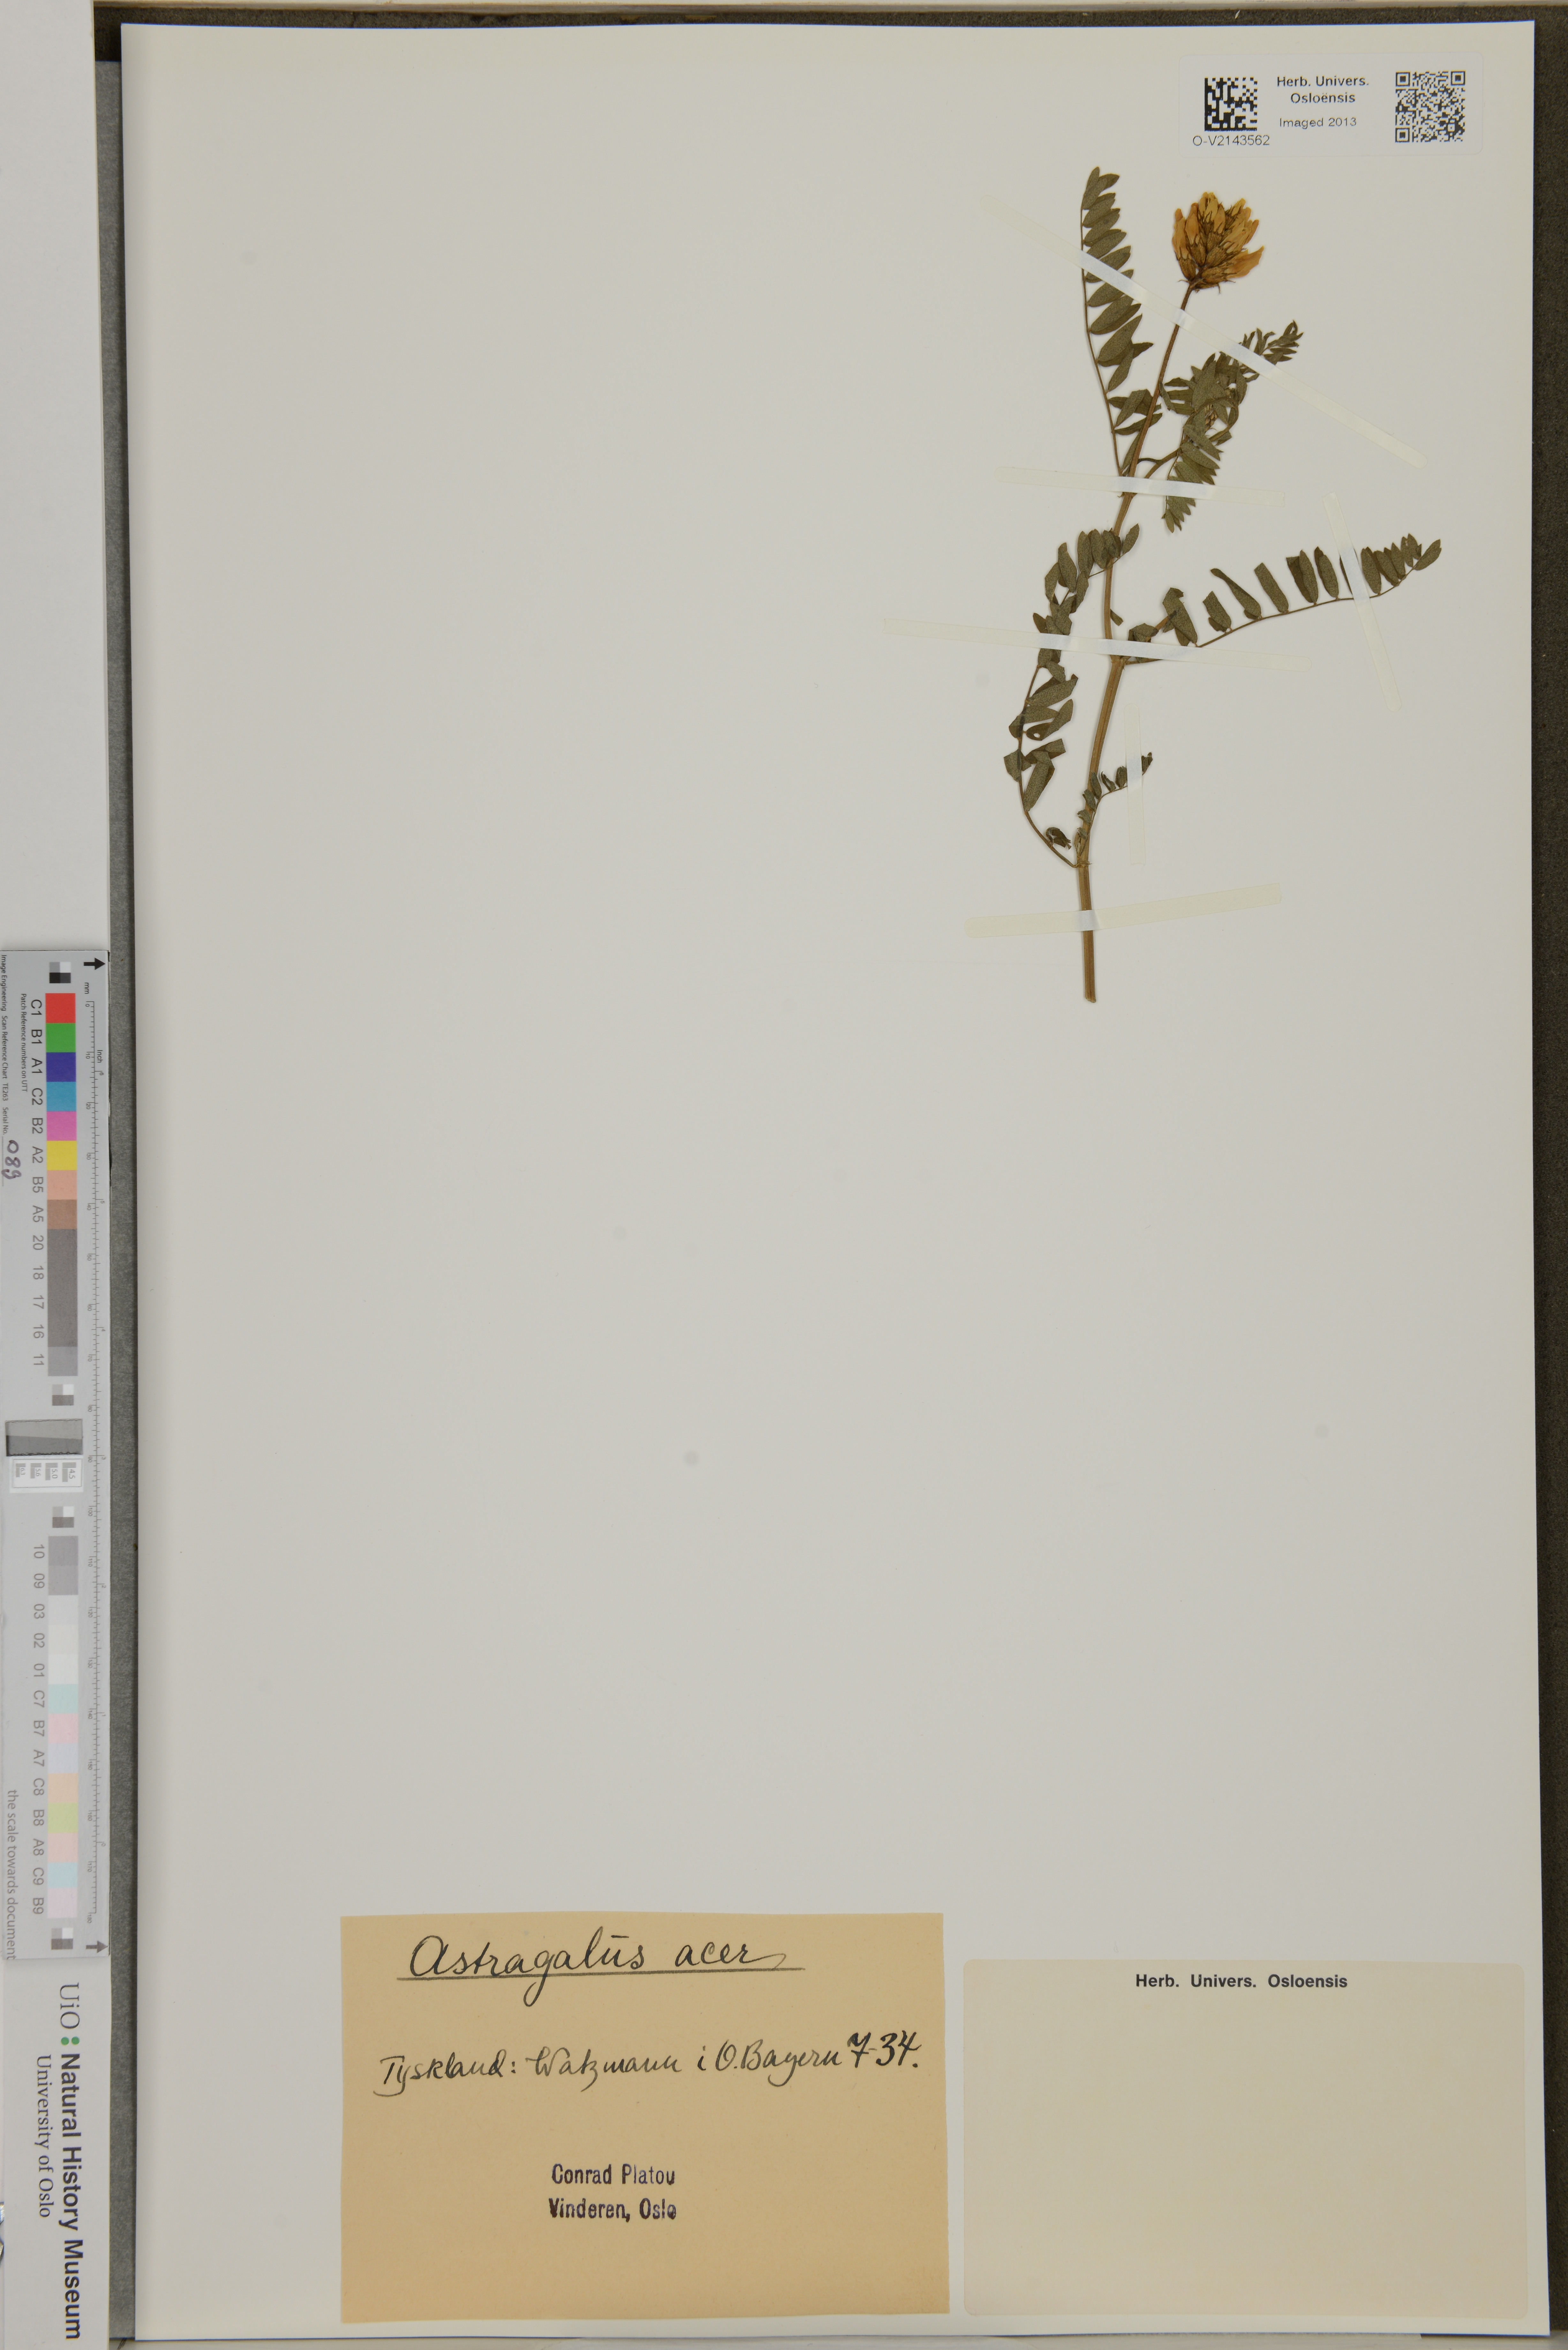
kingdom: Plantae
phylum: Tracheophyta
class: Magnoliopsida
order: Fabales
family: Fabaceae
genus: Astragalus
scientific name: Astragalus wingatanus
